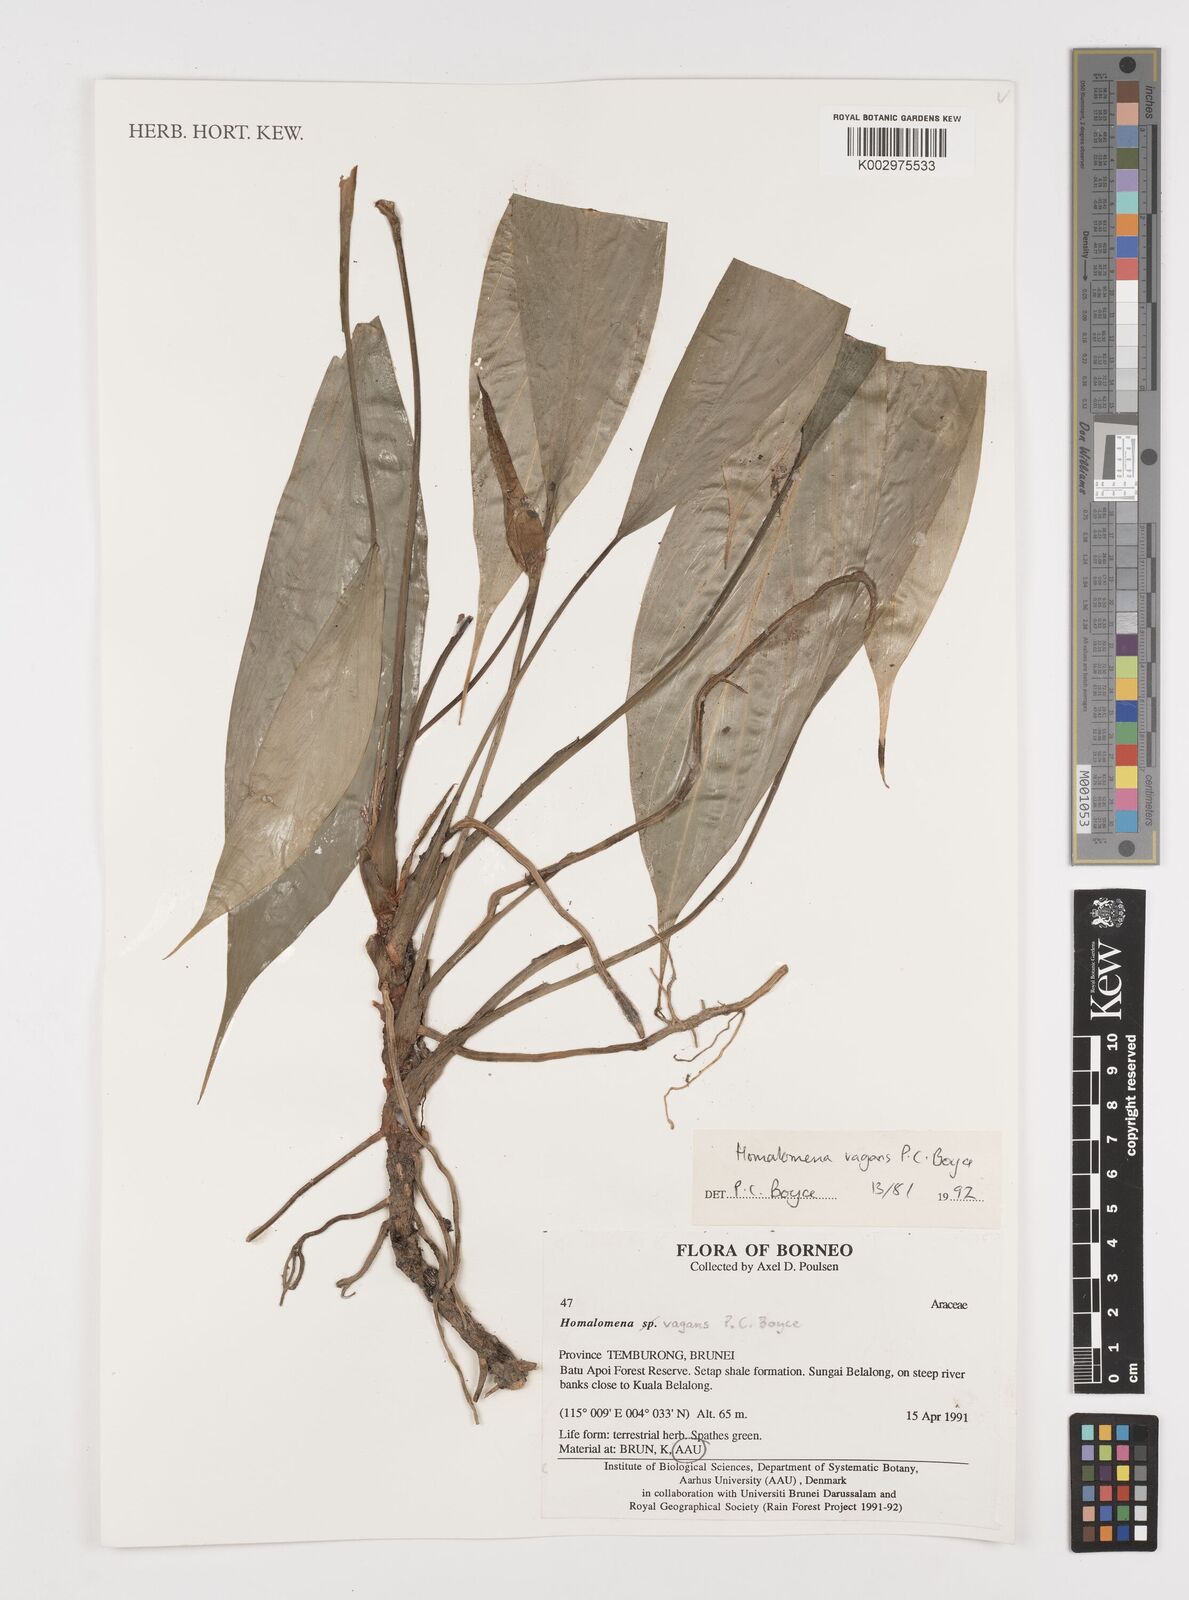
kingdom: Plantae
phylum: Tracheophyta
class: Liliopsida
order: Alismatales
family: Araceae
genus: Homalomena
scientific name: Homalomena vagans
